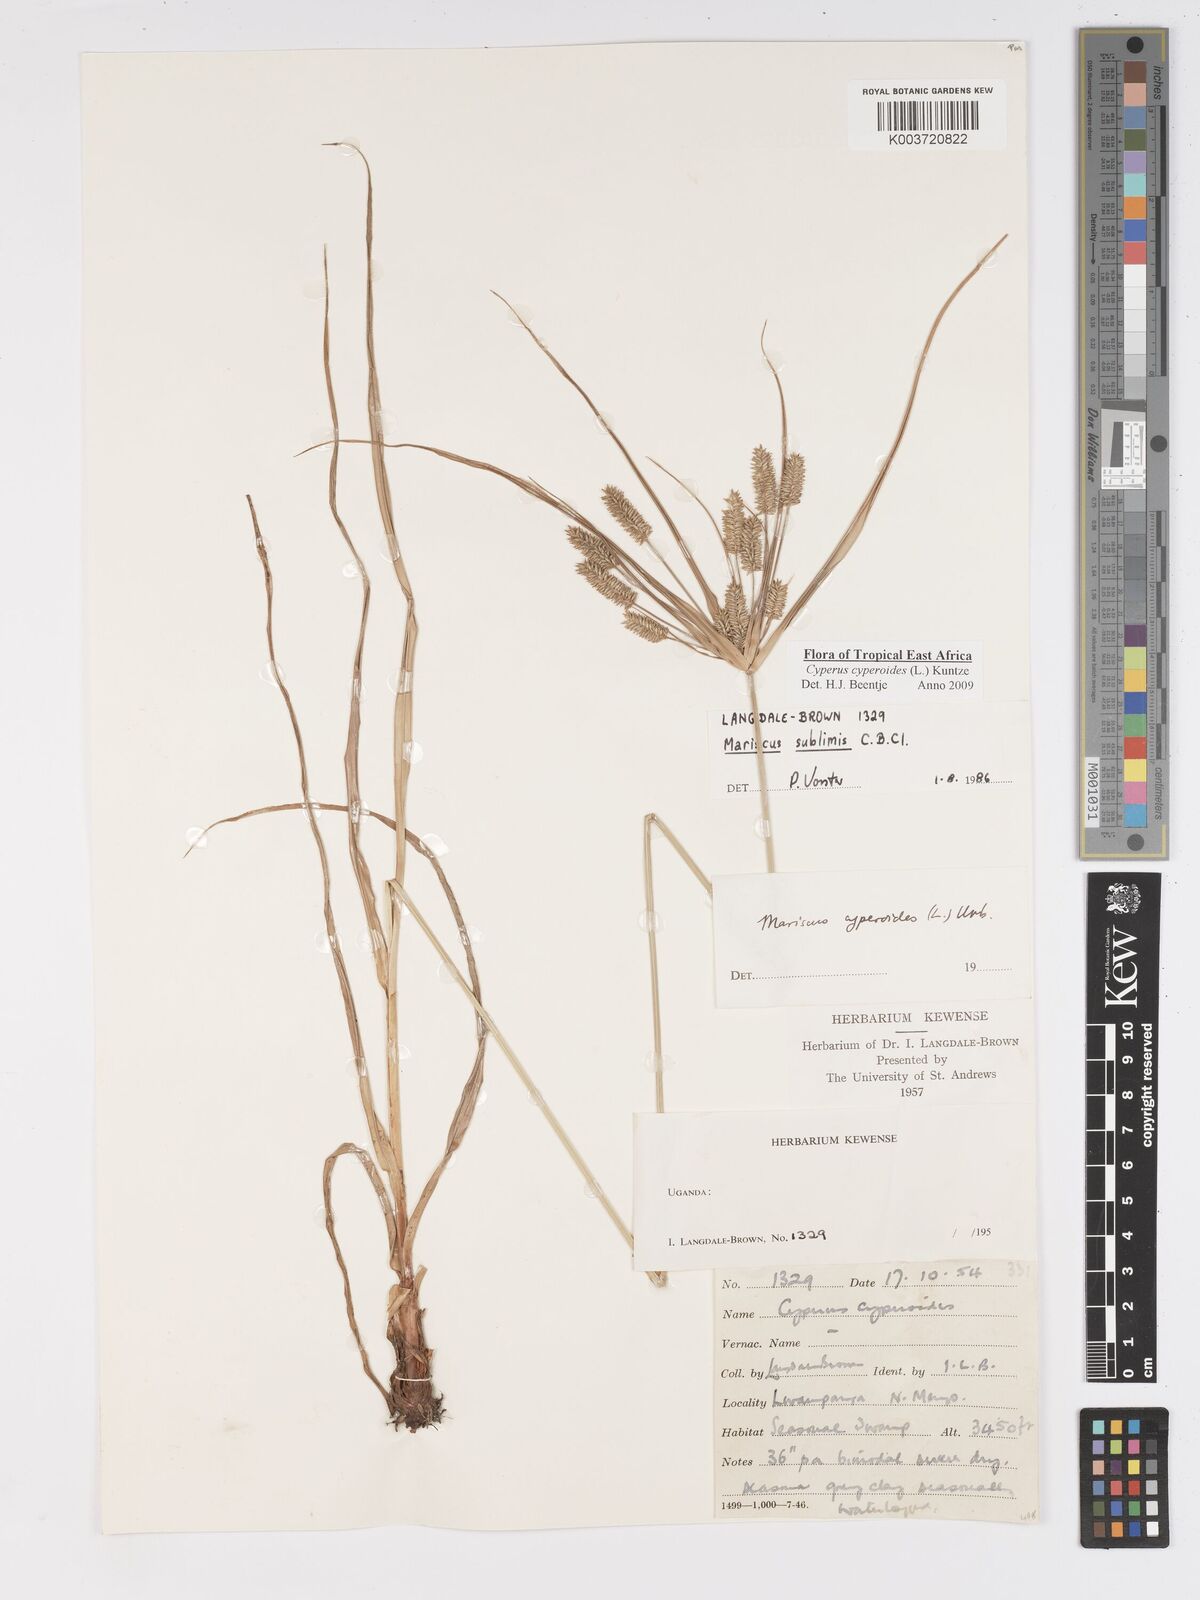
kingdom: Plantae
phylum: Tracheophyta
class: Liliopsida
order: Poales
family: Cyperaceae
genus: Cyperus
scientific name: Cyperus cyperoides
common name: Pacific island flat sedge
